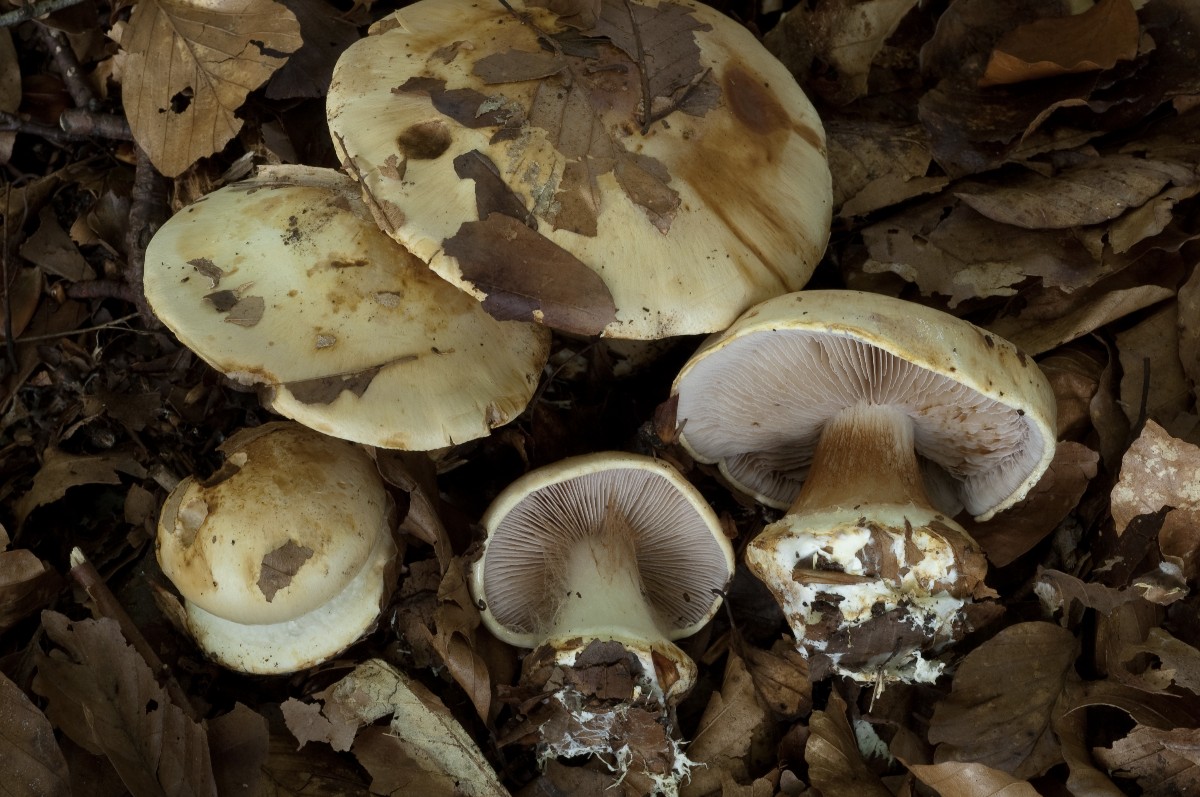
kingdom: Fungi
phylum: Basidiomycota
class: Agaricomycetes
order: Agaricales
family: Cortinariaceae
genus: Calonarius
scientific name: Calonarius albertii
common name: Alberts slørhat
